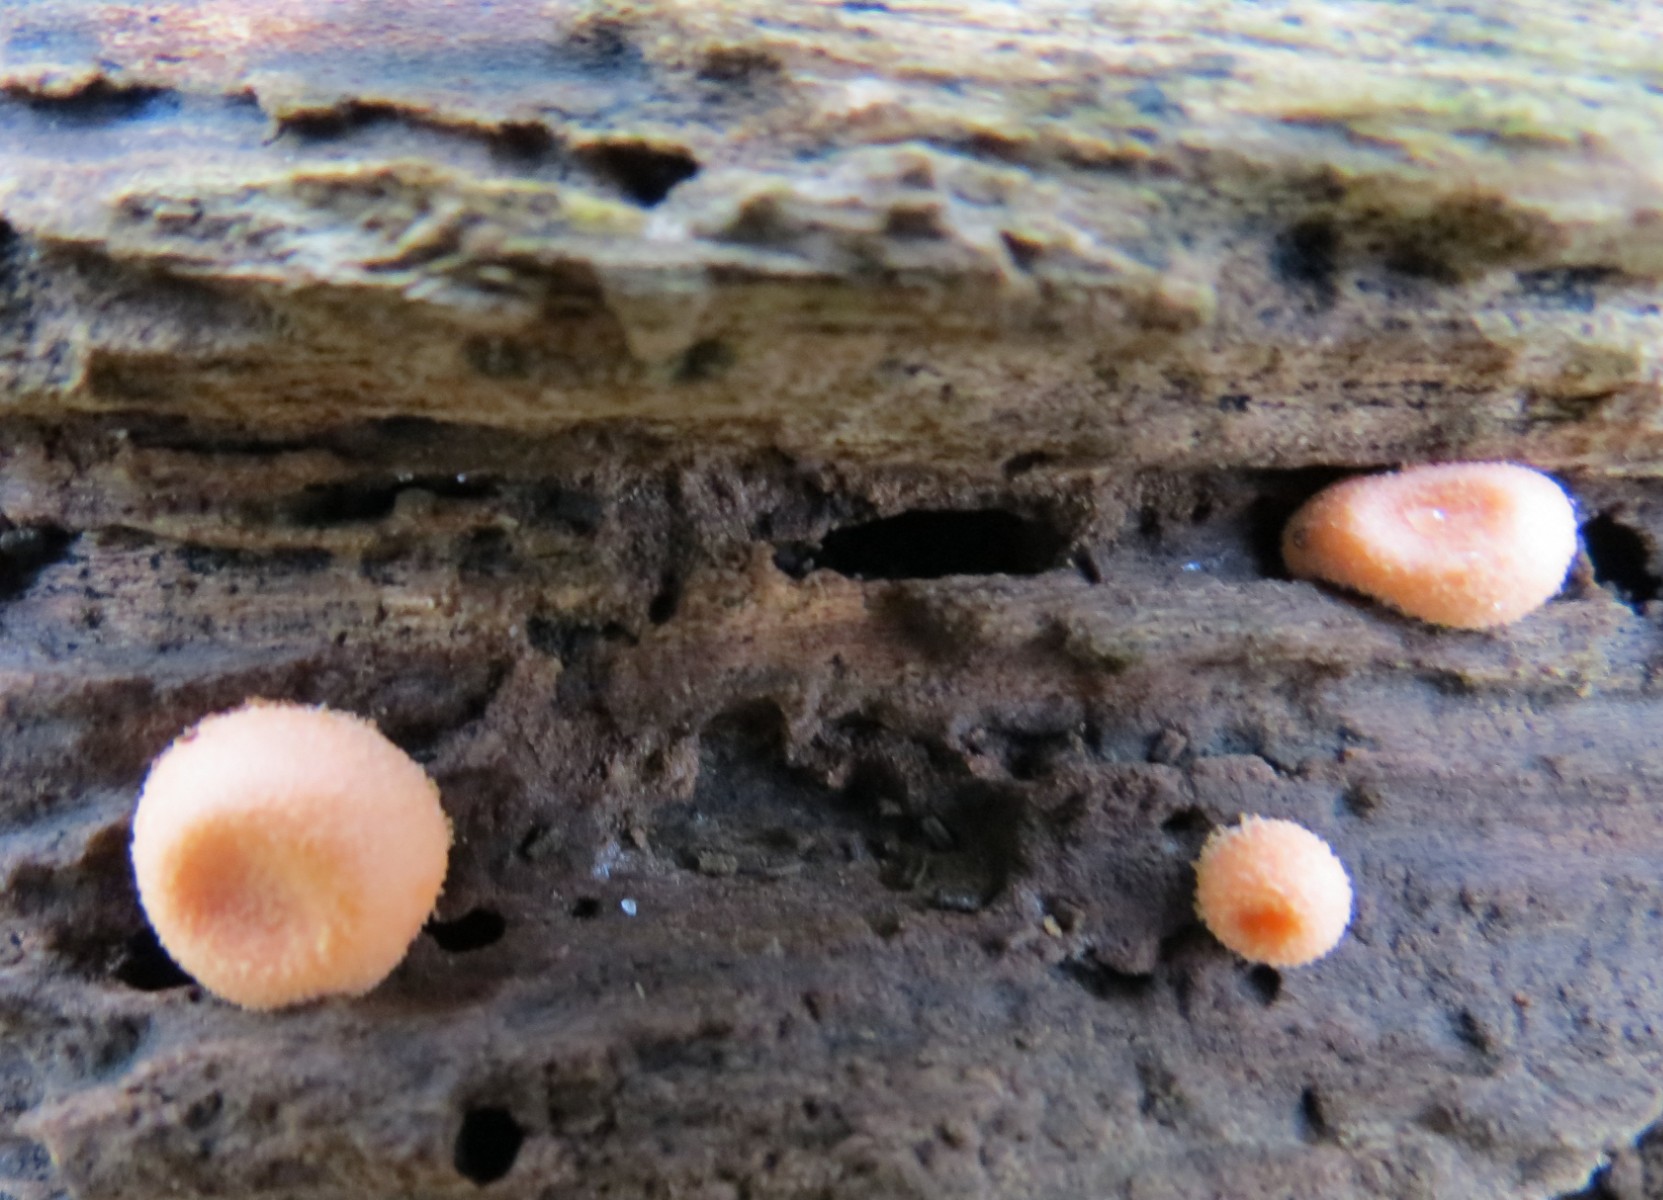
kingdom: Protozoa
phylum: Mycetozoa
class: Myxomycetes
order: Cribrariales
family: Tubiferaceae
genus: Lycogala
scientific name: Lycogala epidendrum
